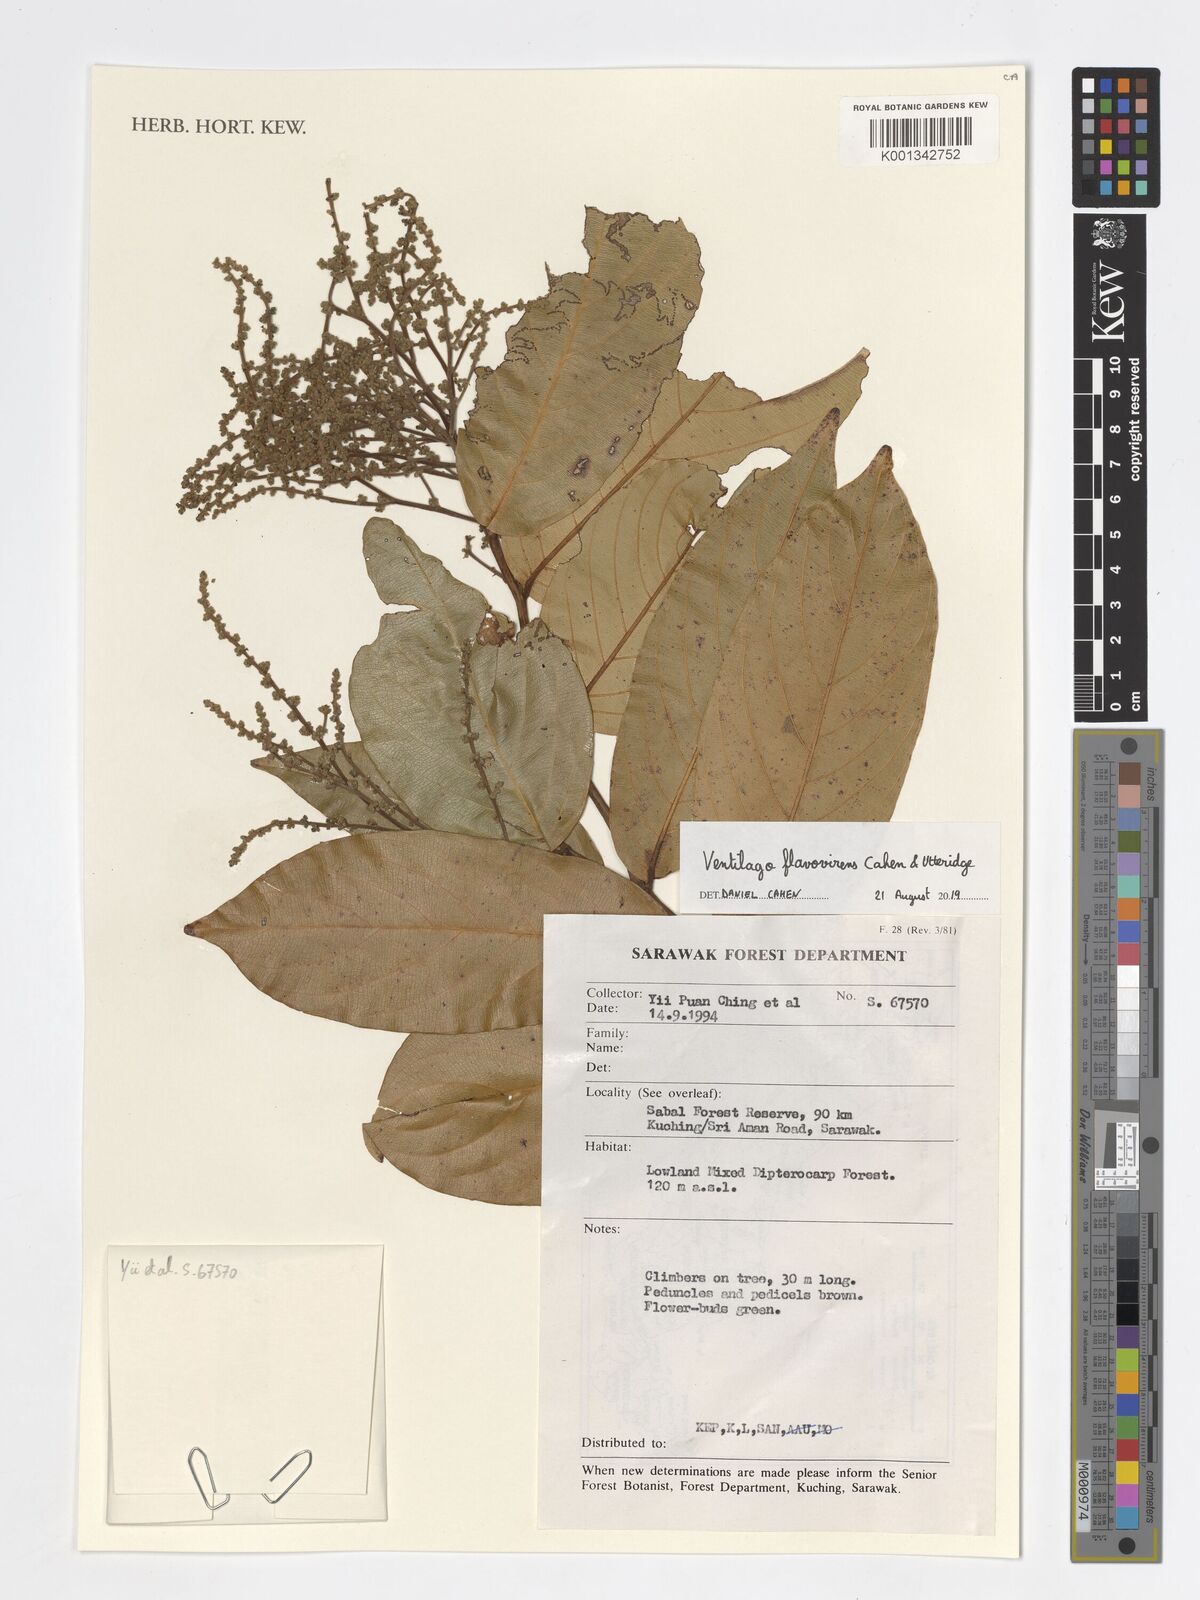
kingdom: Plantae
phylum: Tracheophyta
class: Magnoliopsida
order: Rosales
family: Rhamnaceae
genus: Ventilago
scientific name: Ventilago flavovirens
